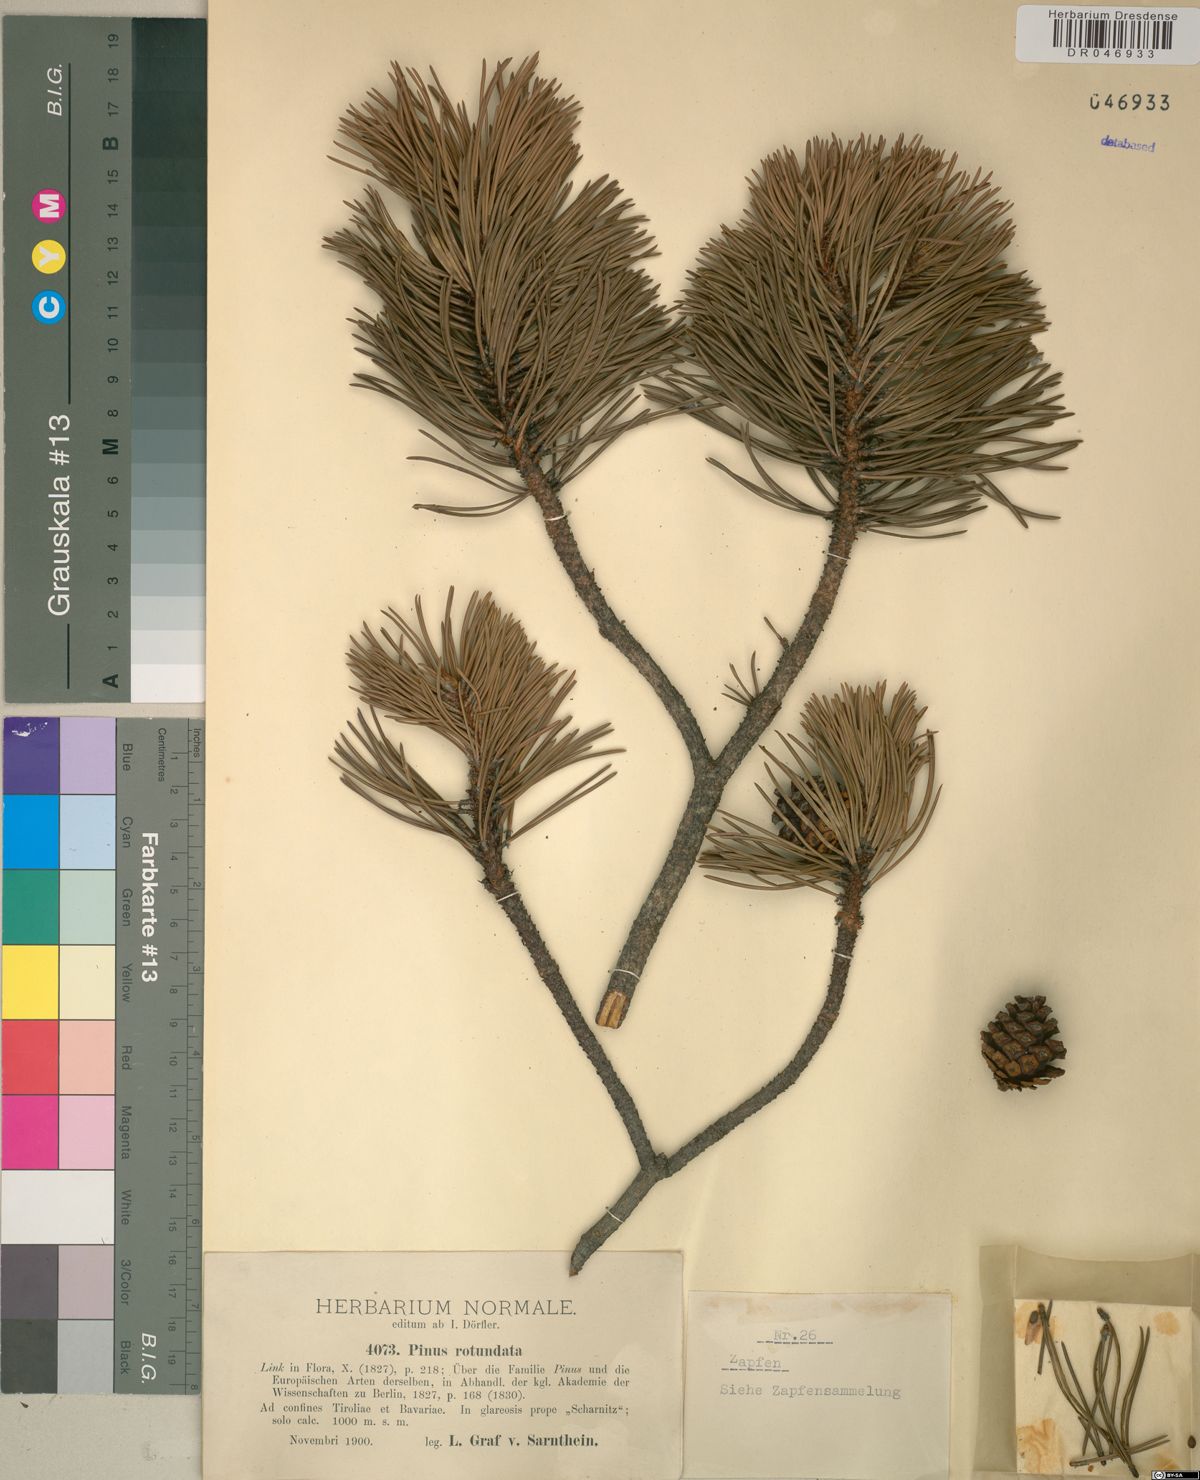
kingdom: Plantae
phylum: Tracheophyta
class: Pinopsida
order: Pinales
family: Pinaceae
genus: Pinus
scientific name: Pinus mugo
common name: Mugo pine
